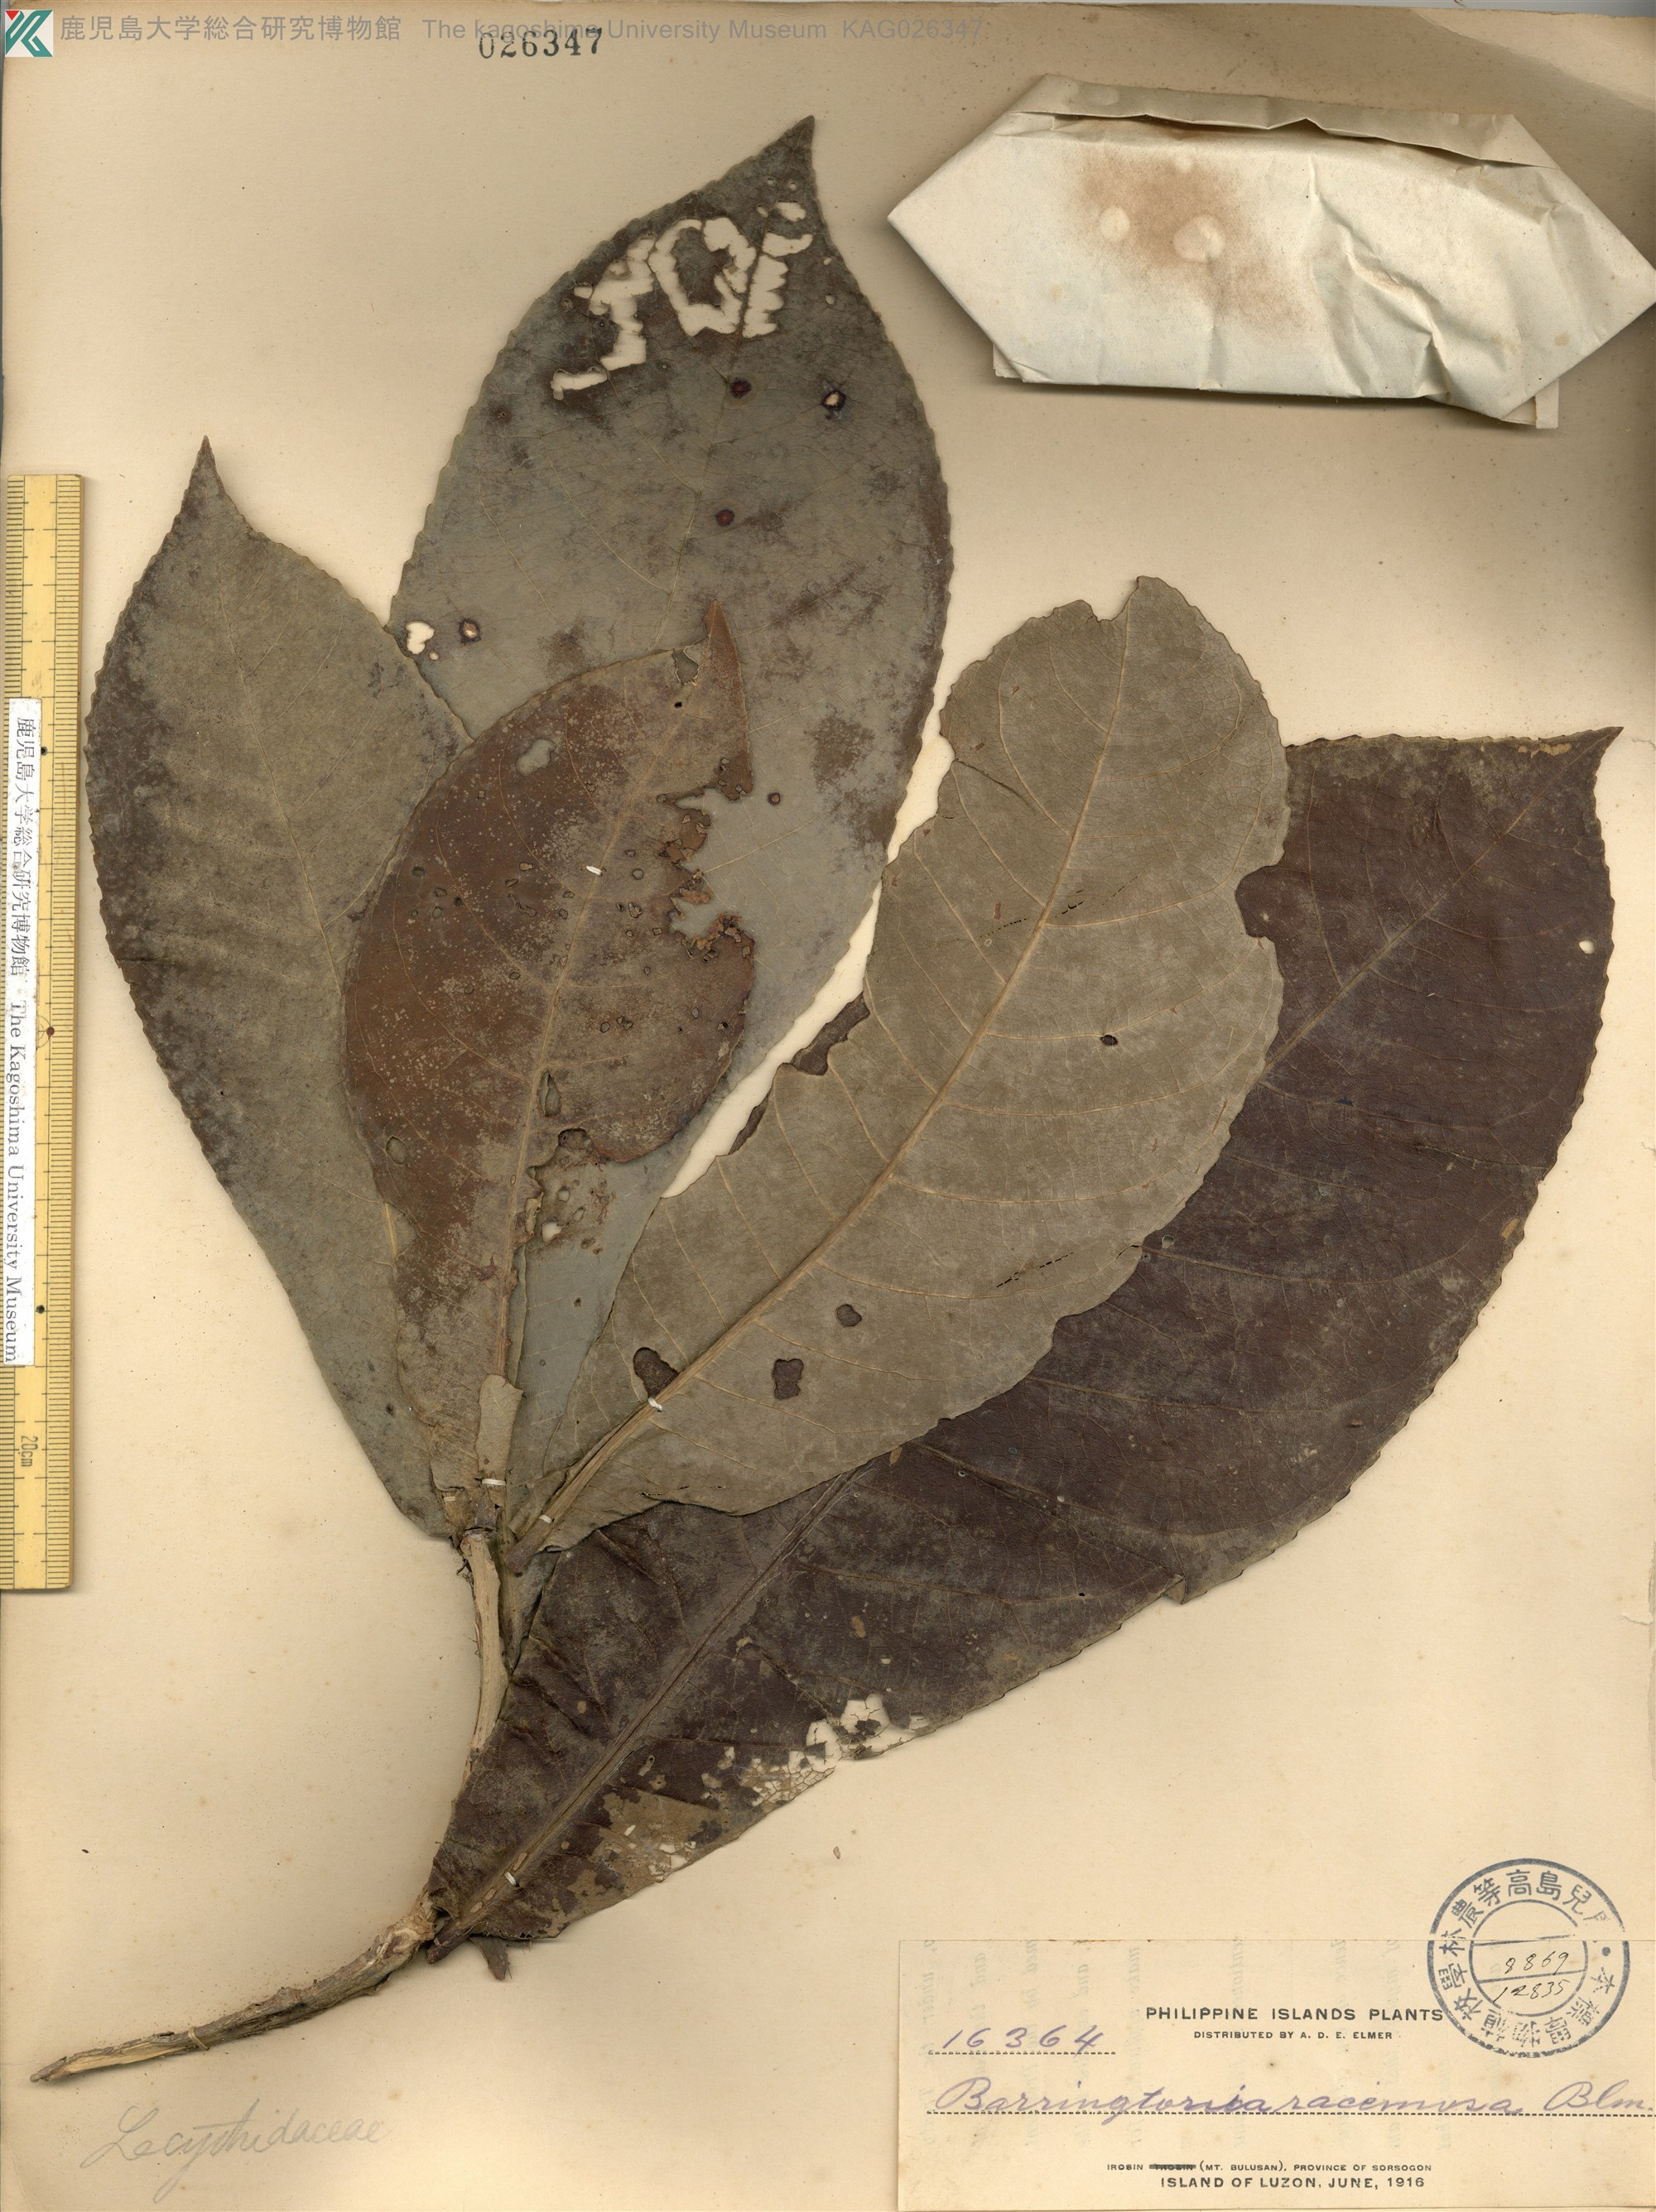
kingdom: Plantae
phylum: Tracheophyta
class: Magnoliopsida
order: Ericales
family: Lecythidaceae
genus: Barringtonia
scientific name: Barringtonia racemosa
